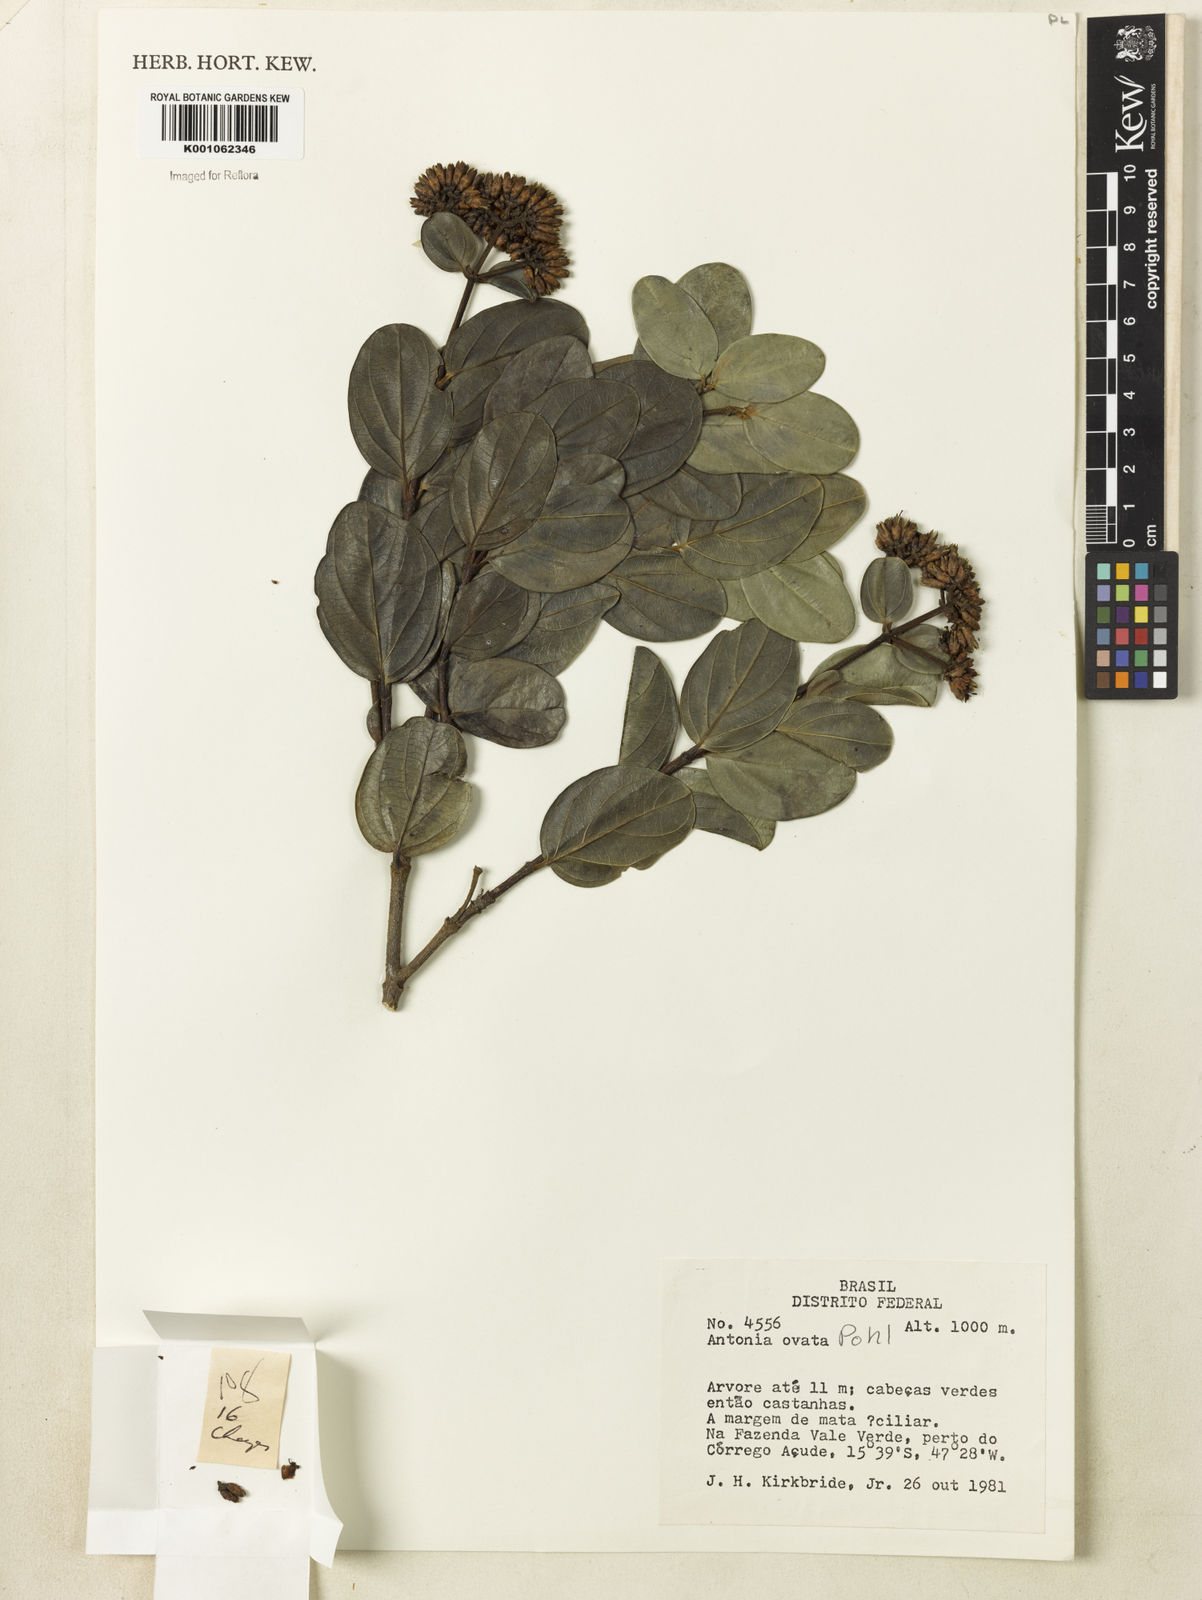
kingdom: Plantae
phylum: Tracheophyta
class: Magnoliopsida
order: Gentianales
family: Loganiaceae
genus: Antonia
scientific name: Antonia ovata
